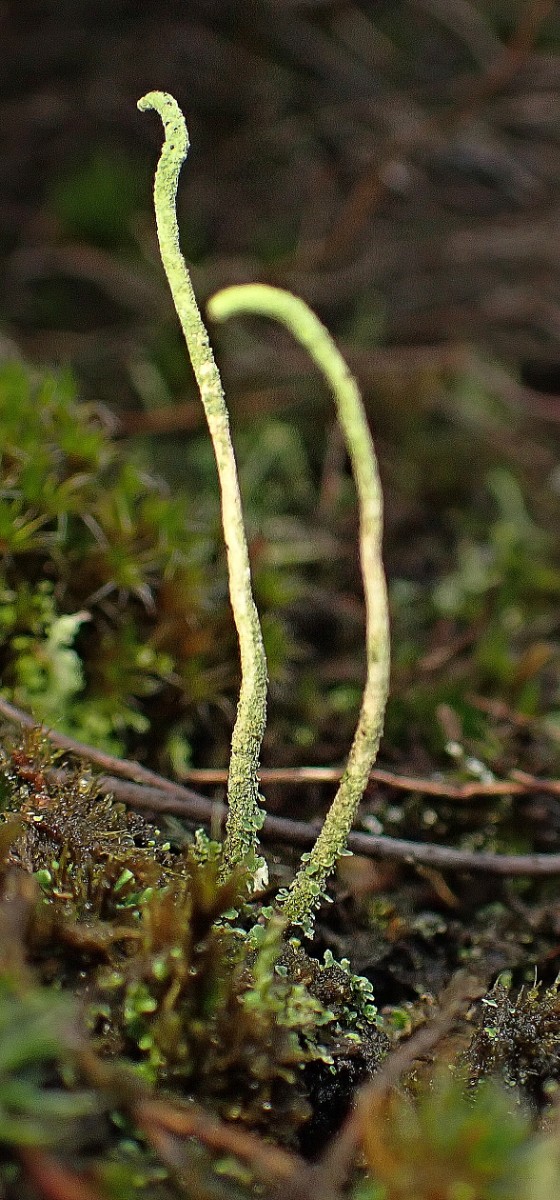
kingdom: Fungi
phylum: Ascomycota
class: Lecanoromycetes
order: Lecanorales
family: Cladoniaceae
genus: Cladonia
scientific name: Cladonia glauca
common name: grågrøn bægerlav
